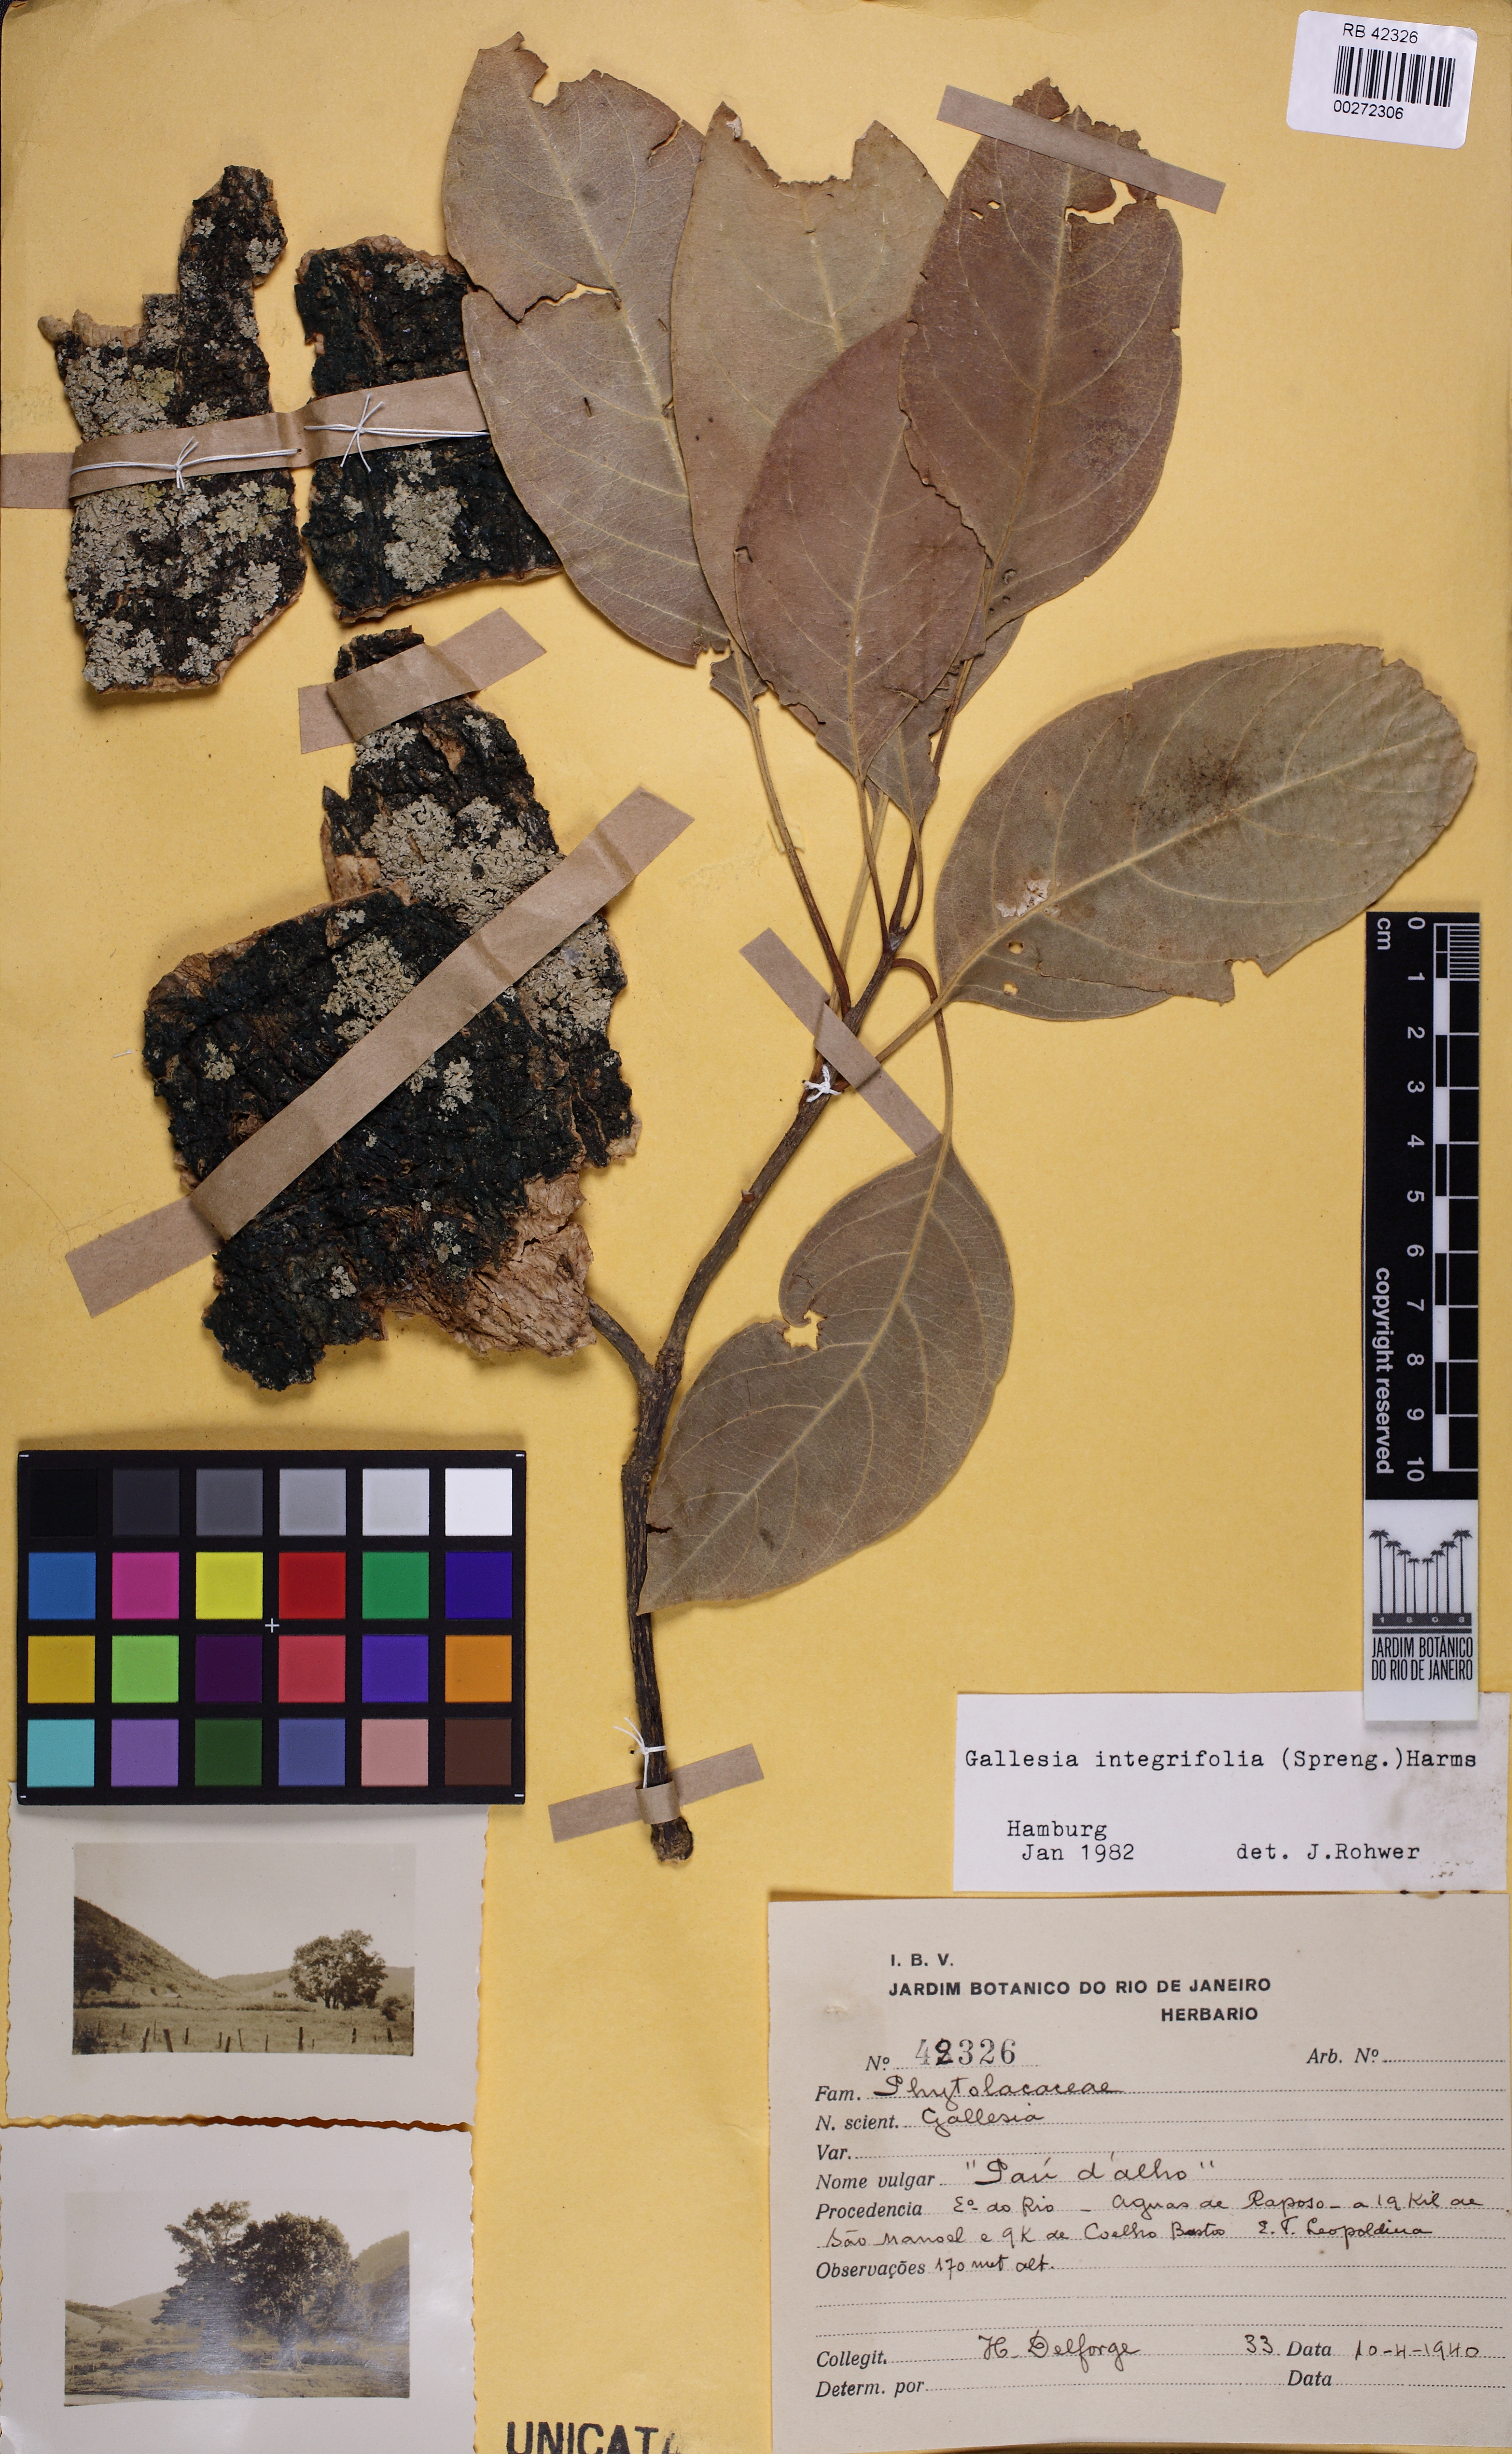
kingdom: Plantae
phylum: Tracheophyta
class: Magnoliopsida
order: Caryophyllales
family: Phytolaccaceae
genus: Gallesia
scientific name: Gallesia integrifolia
